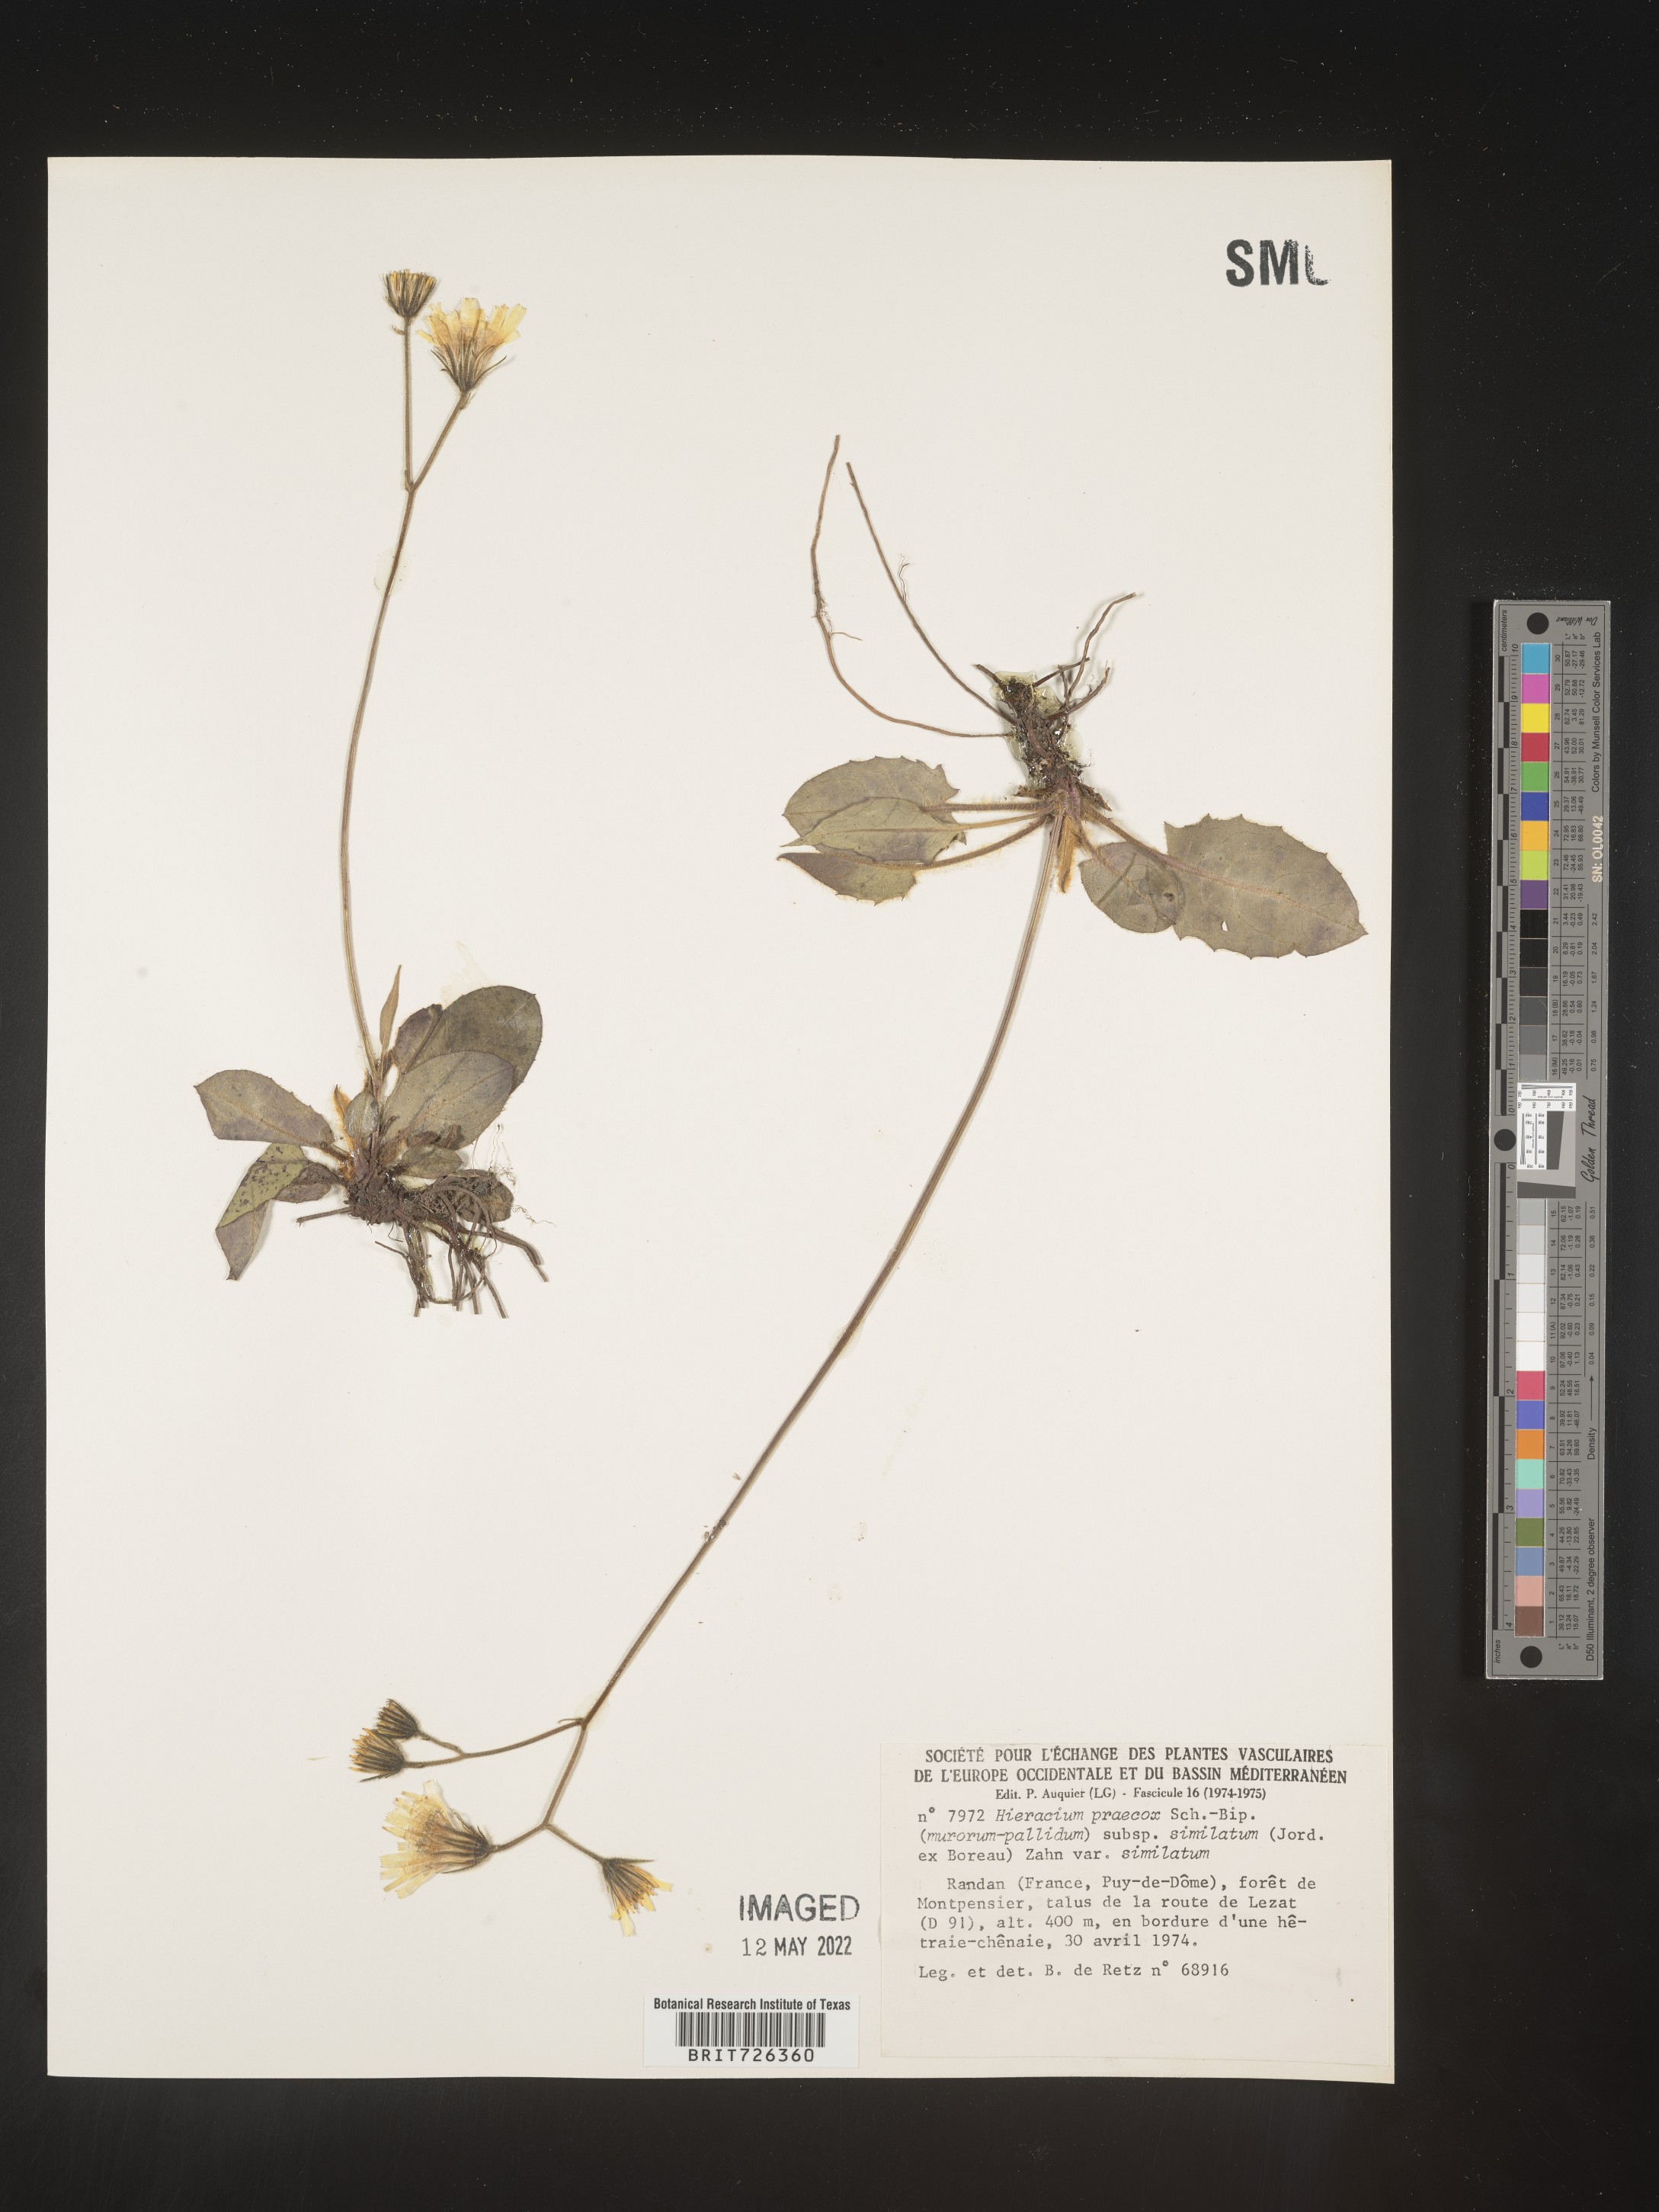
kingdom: Plantae
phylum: Tracheophyta
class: Magnoliopsida
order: Asterales
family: Asteraceae
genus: Hieracium
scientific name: Hieracium
